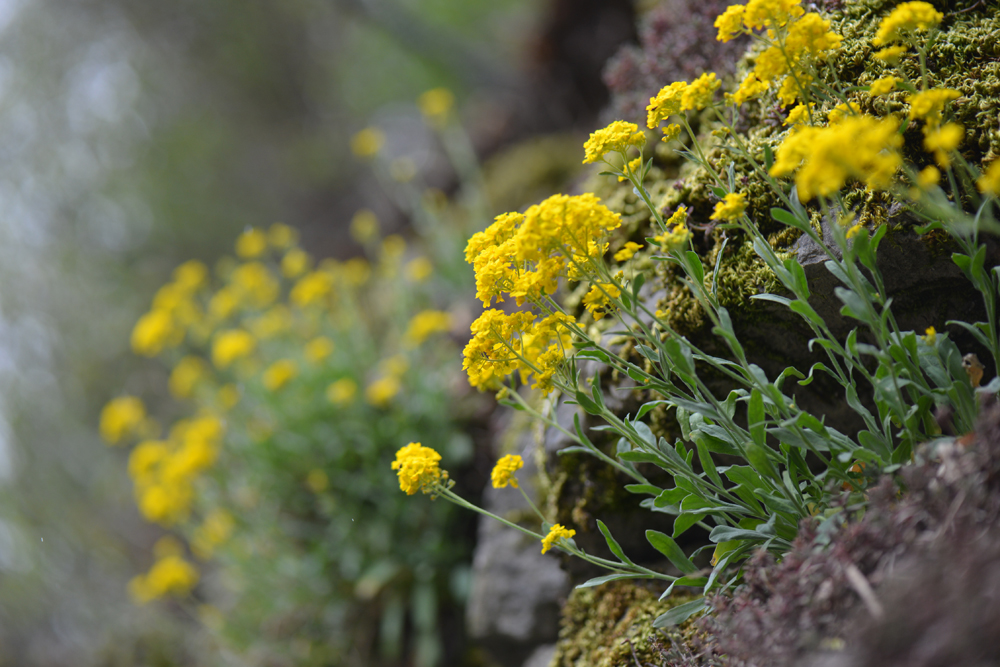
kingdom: Plantae
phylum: Tracheophyta
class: Magnoliopsida
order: Brassicales
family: Brassicaceae
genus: Aurinia
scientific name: Aurinia saxatilis
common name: Golden-tuft alyssum
